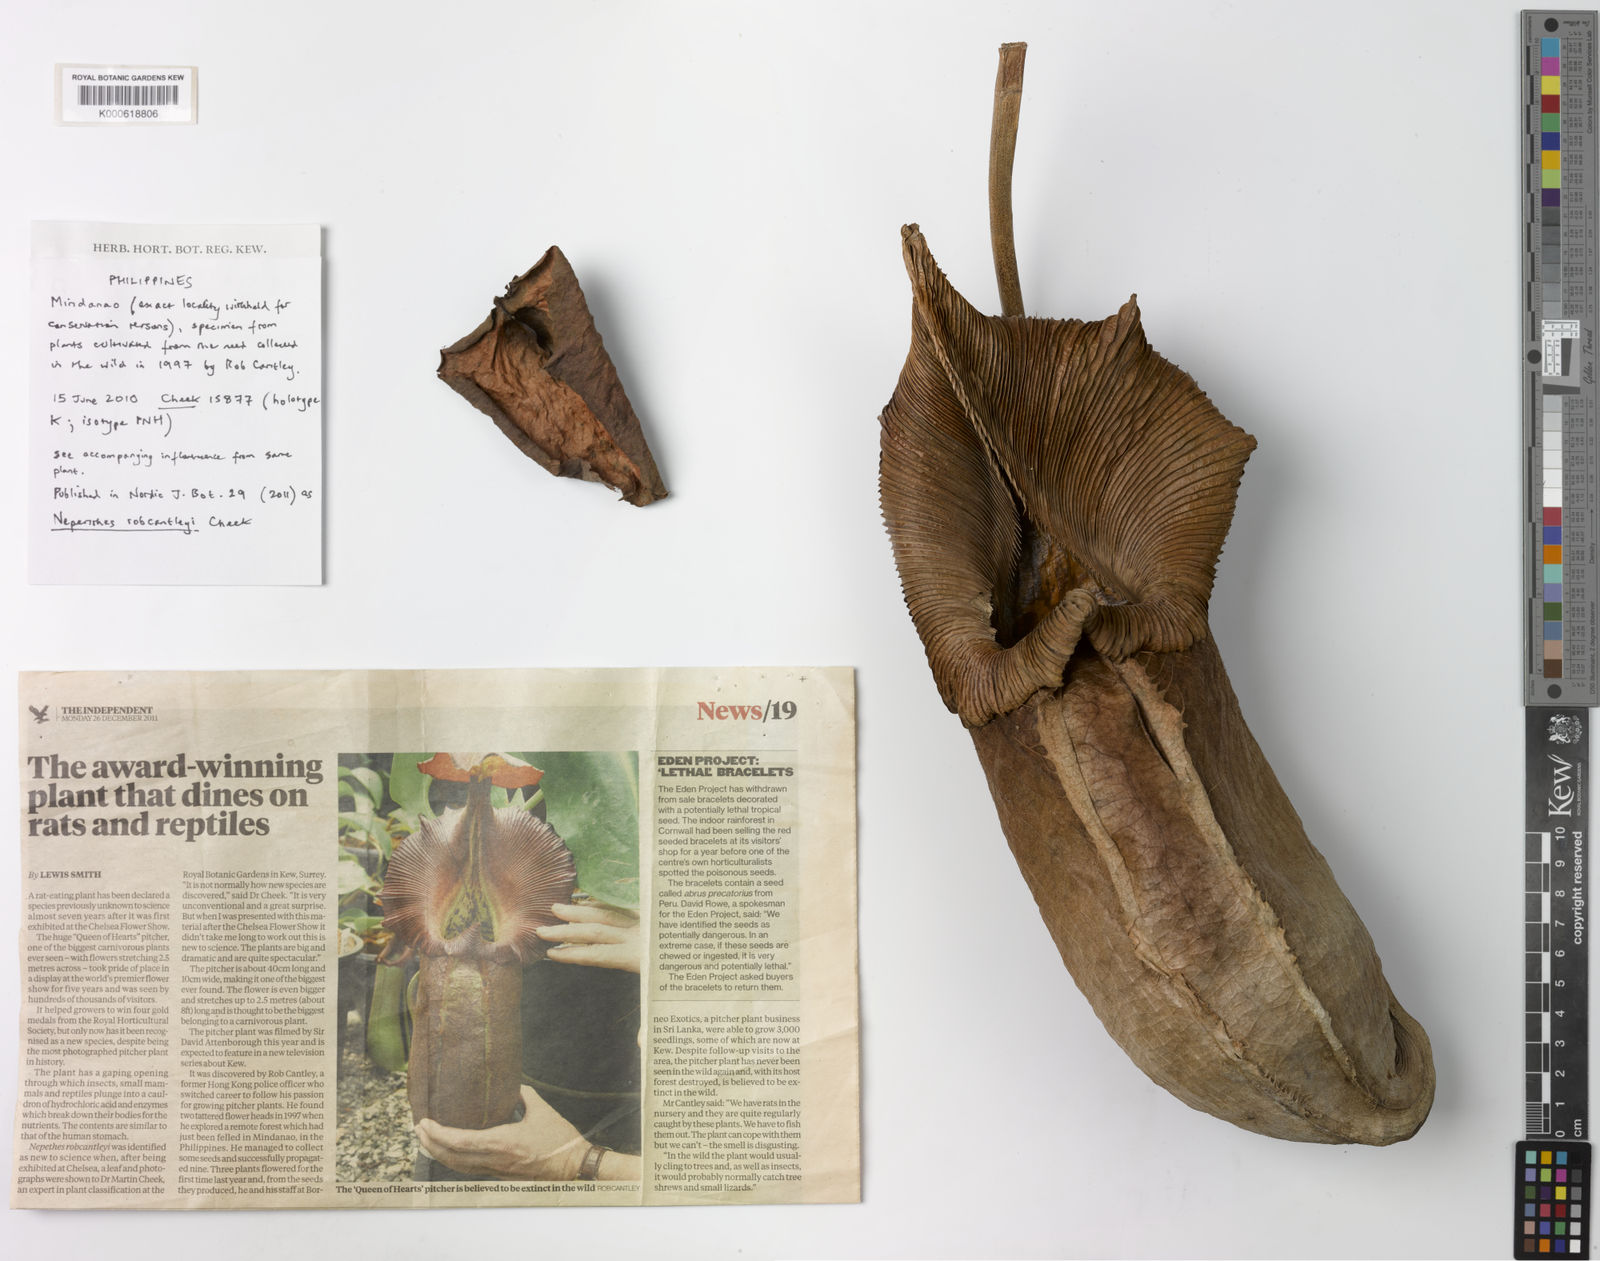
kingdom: Plantae
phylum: Tracheophyta
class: Magnoliopsida
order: Caryophyllales
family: Nepenthaceae
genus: Nepenthes
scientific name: Nepenthes robcantleyi
